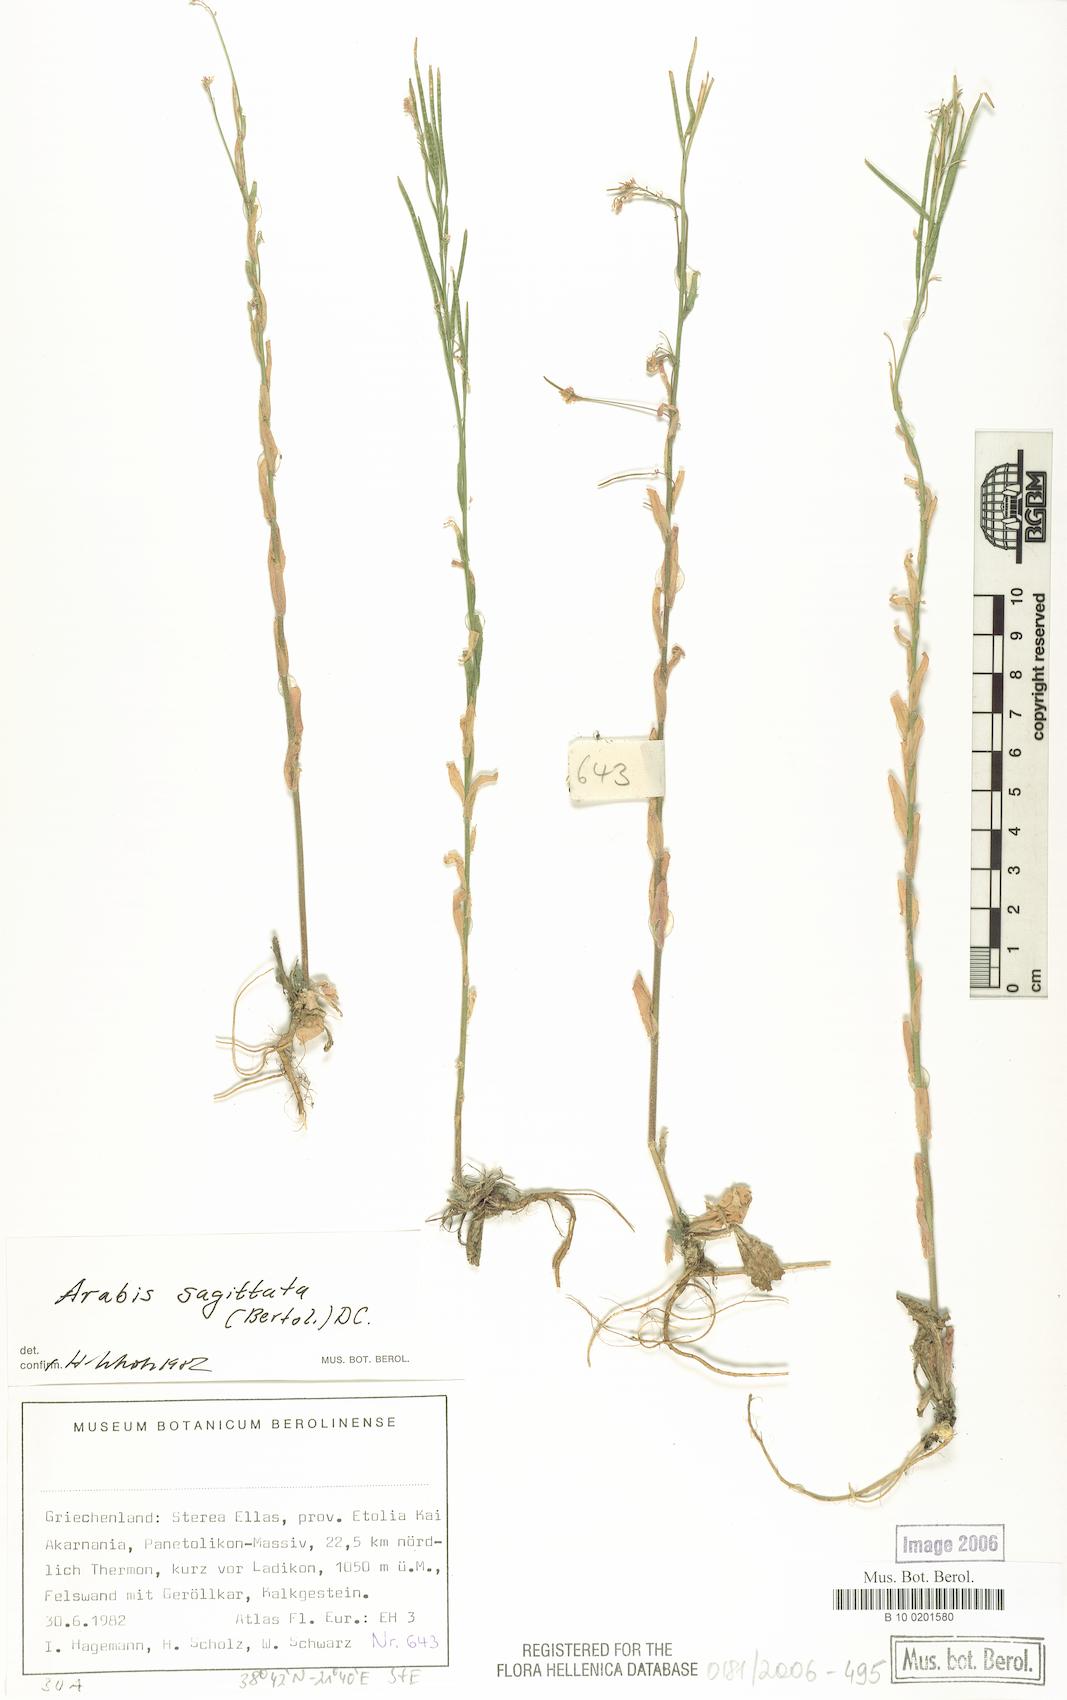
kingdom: Plantae
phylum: Tracheophyta
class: Magnoliopsida
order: Brassicales
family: Brassicaceae
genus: Arabis
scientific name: Arabis sagittata
